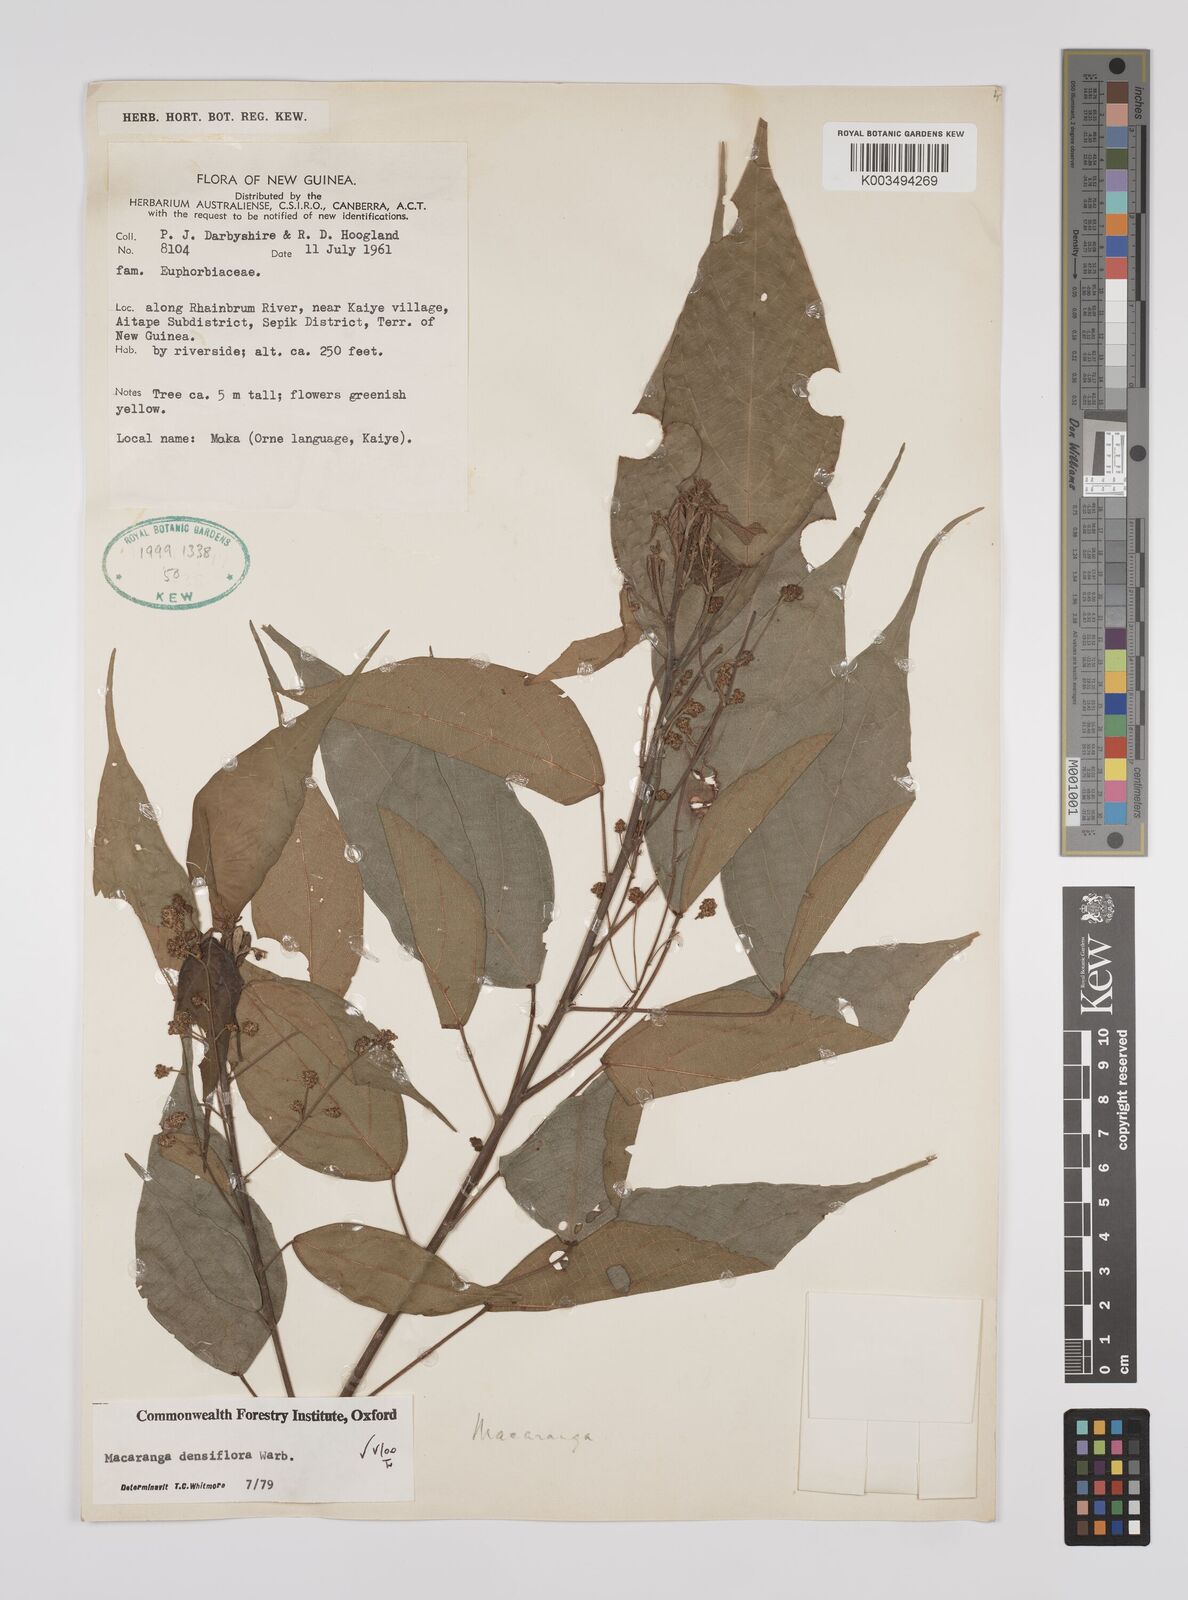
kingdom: Plantae
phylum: Tracheophyta
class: Magnoliopsida
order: Malpighiales
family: Euphorbiaceae
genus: Macaranga
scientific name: Macaranga densiflora
